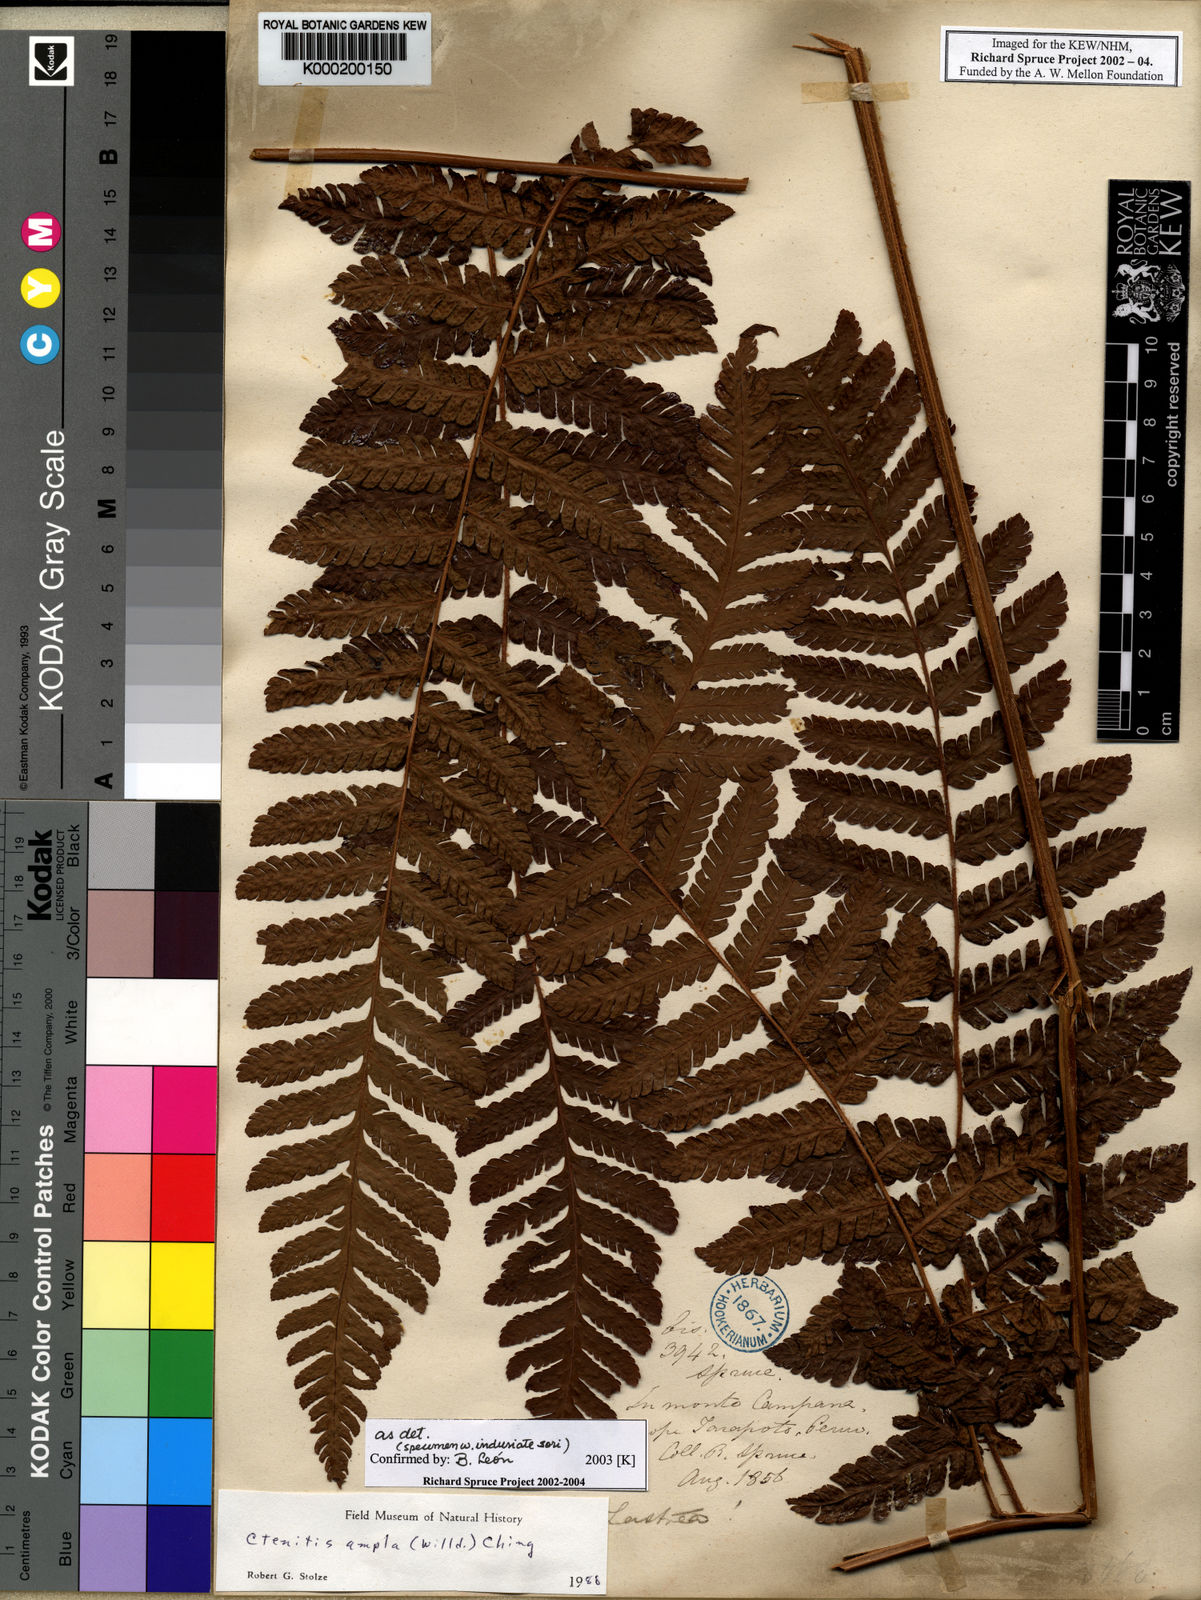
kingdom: Plantae
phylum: Tracheophyta
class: Polypodiopsida
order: Polypodiales
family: Dryopteridaceae
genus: Ctenitis
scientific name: Ctenitis sloanei
